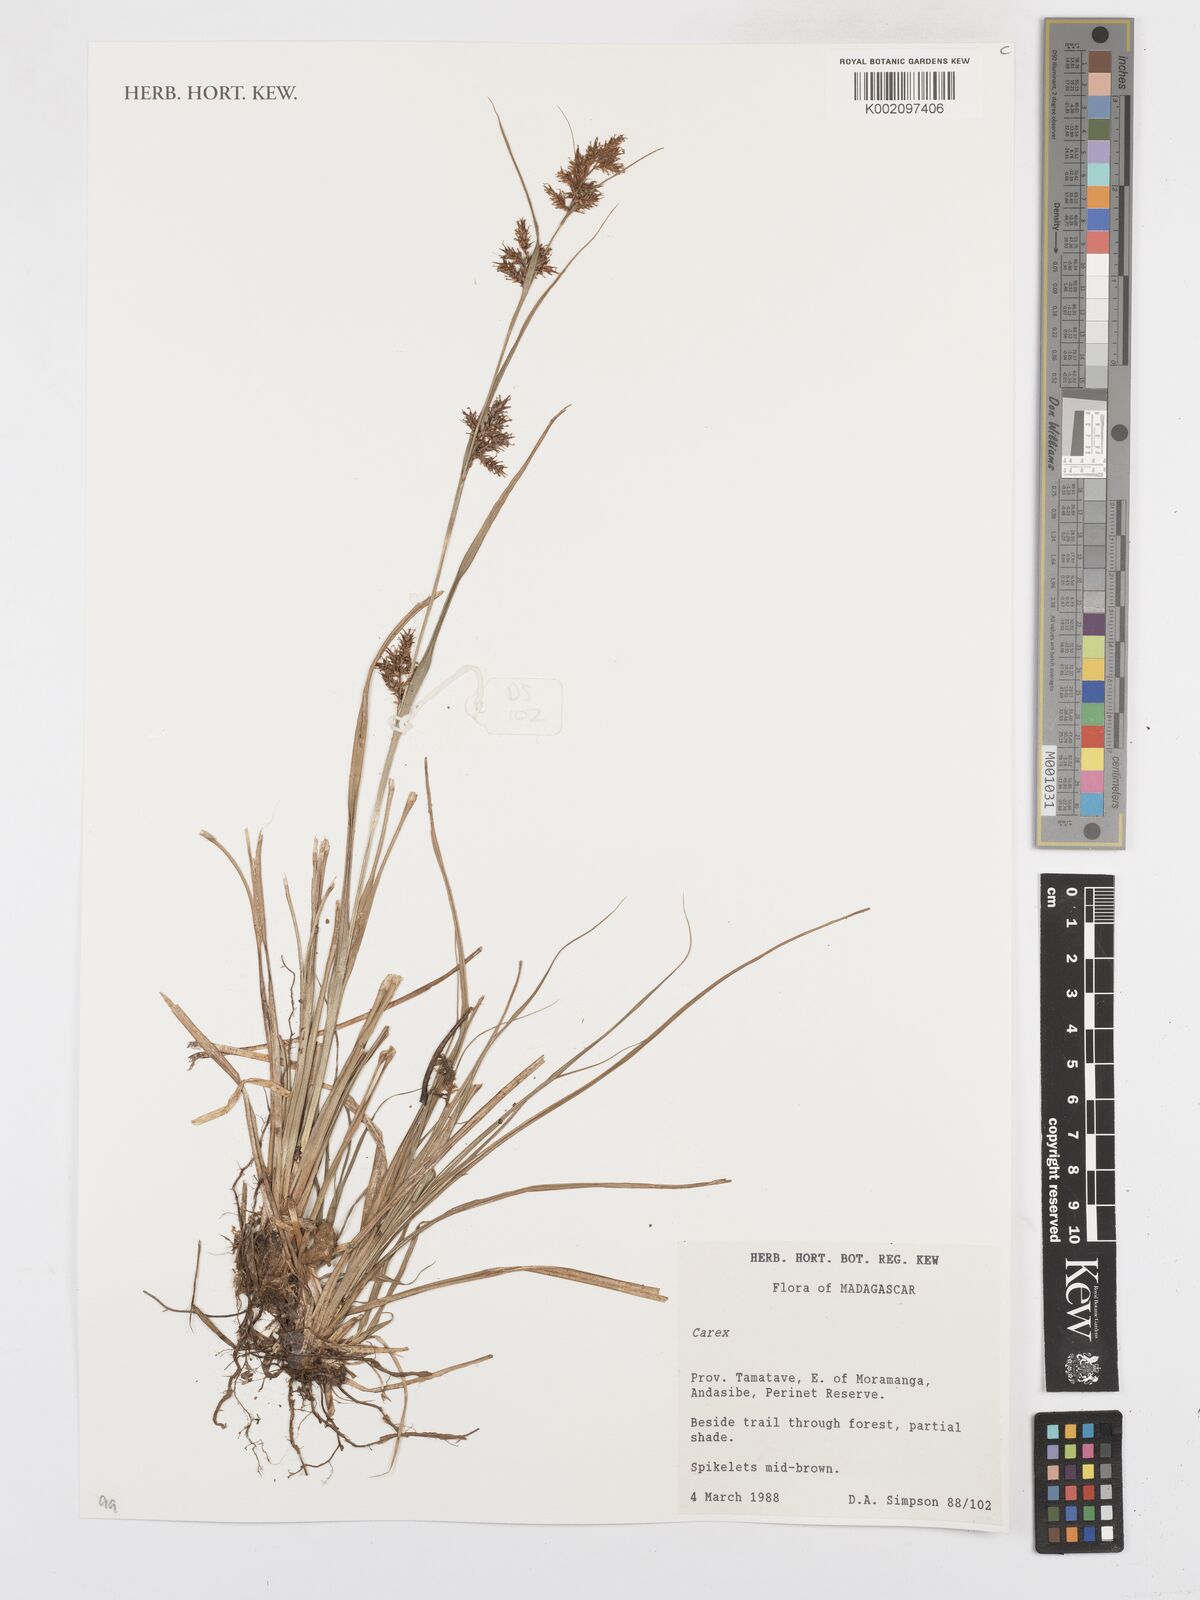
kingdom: Plantae
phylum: Tracheophyta
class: Liliopsida
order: Poales
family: Cyperaceae
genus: Carex
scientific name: Carex
